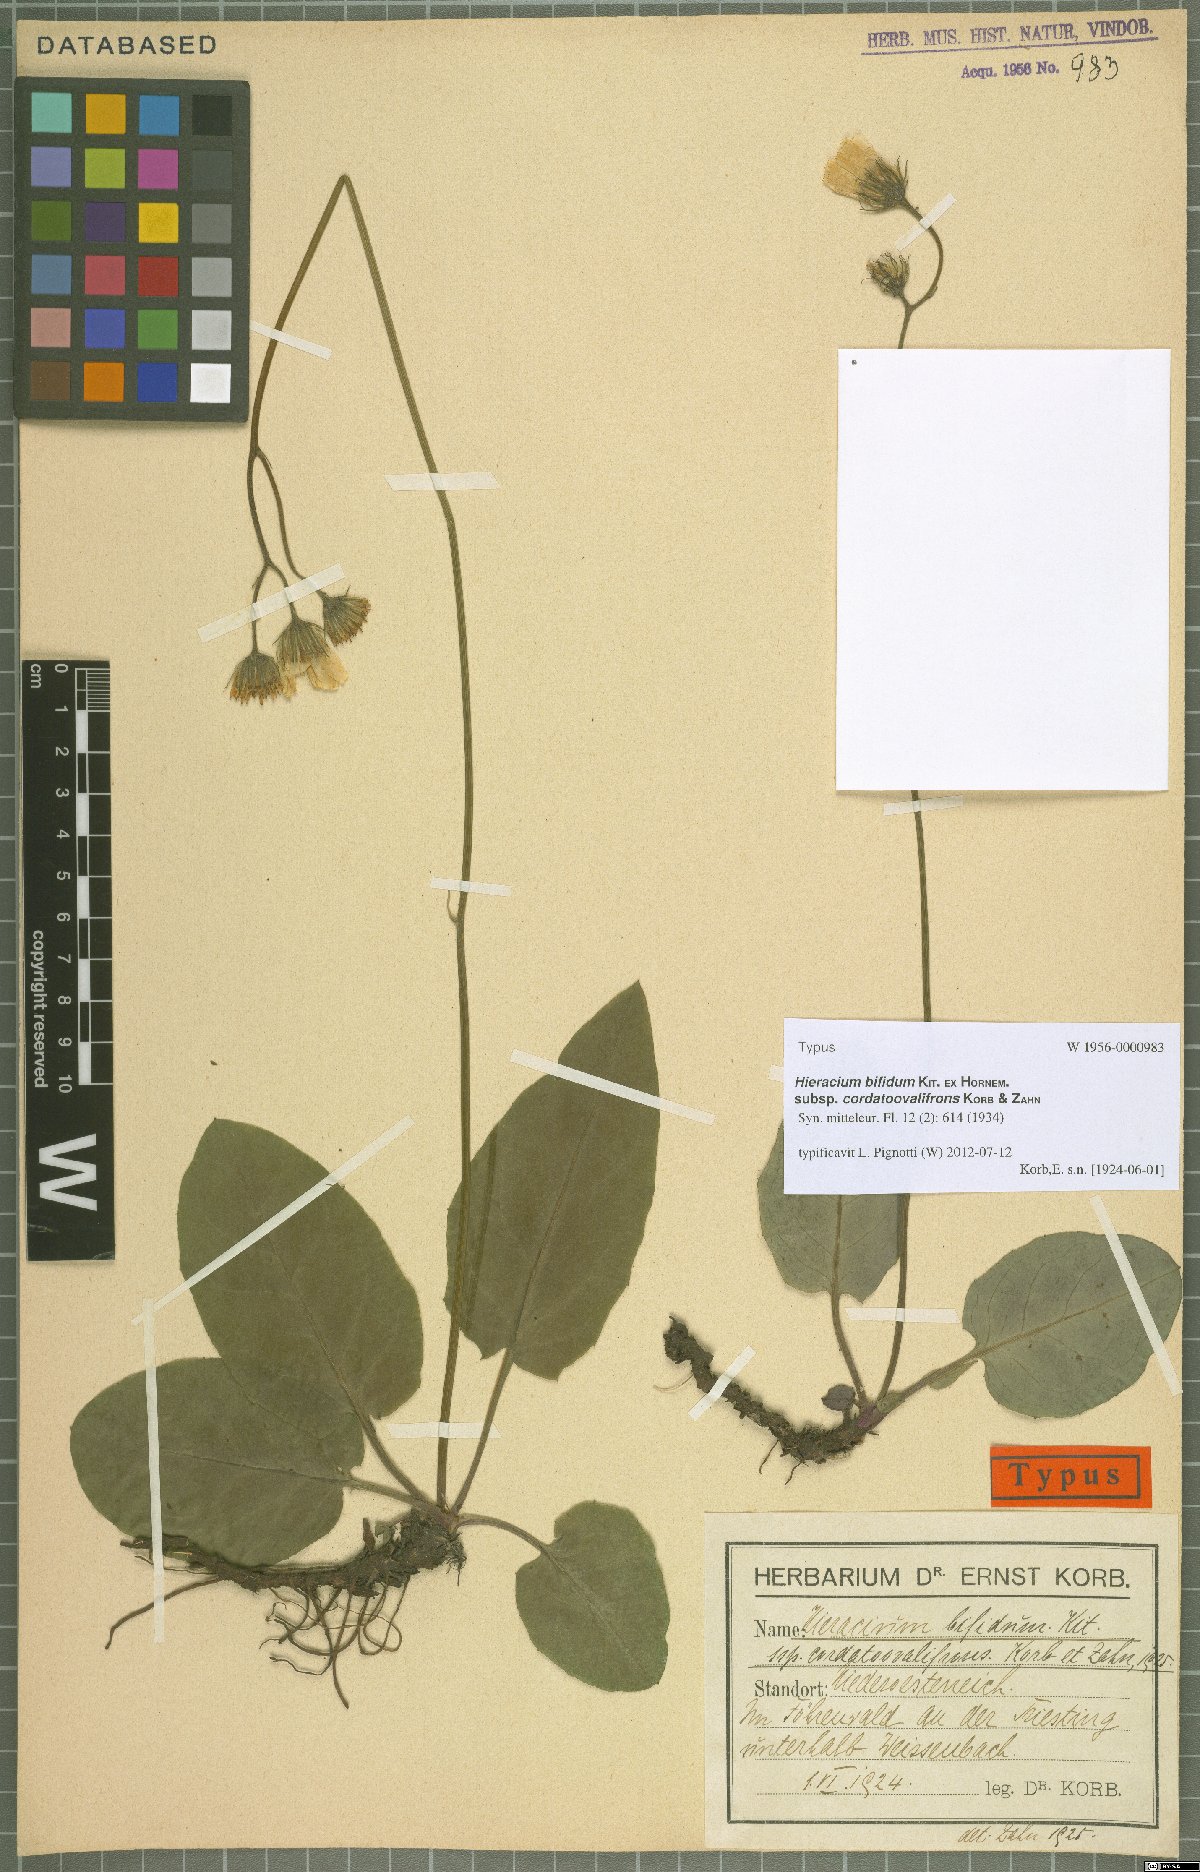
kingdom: Plantae
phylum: Tracheophyta
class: Magnoliopsida
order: Asterales
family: Asteraceae
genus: Hieracium
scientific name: Hieracium bifidum
